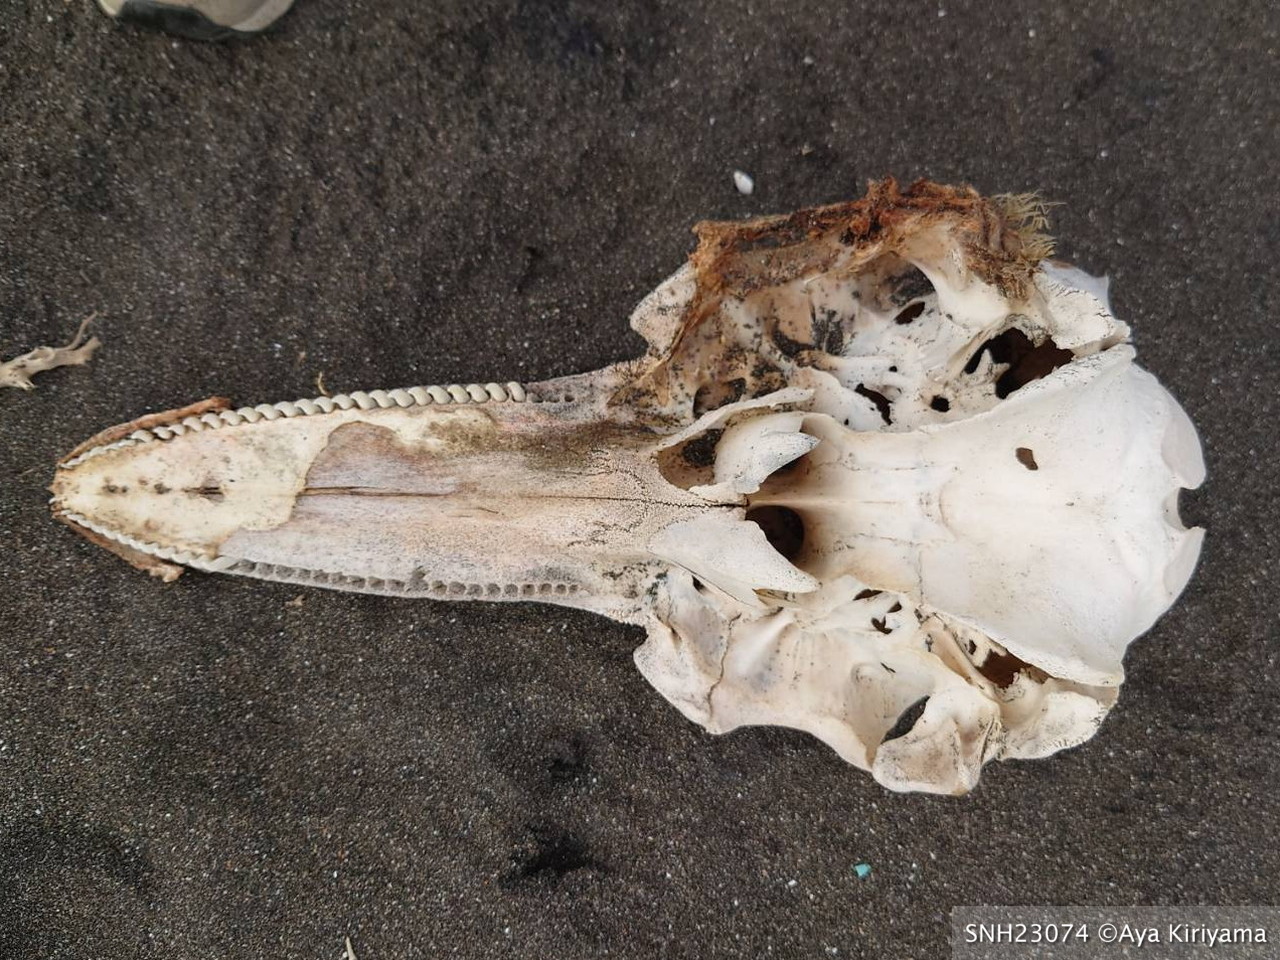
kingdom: Animalia
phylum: Chordata
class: Mammalia
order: Cetacea
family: Delphinidae
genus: Lagenorhynchus
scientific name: Lagenorhynchus obliquidens
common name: Pacific white-sided dolphin
